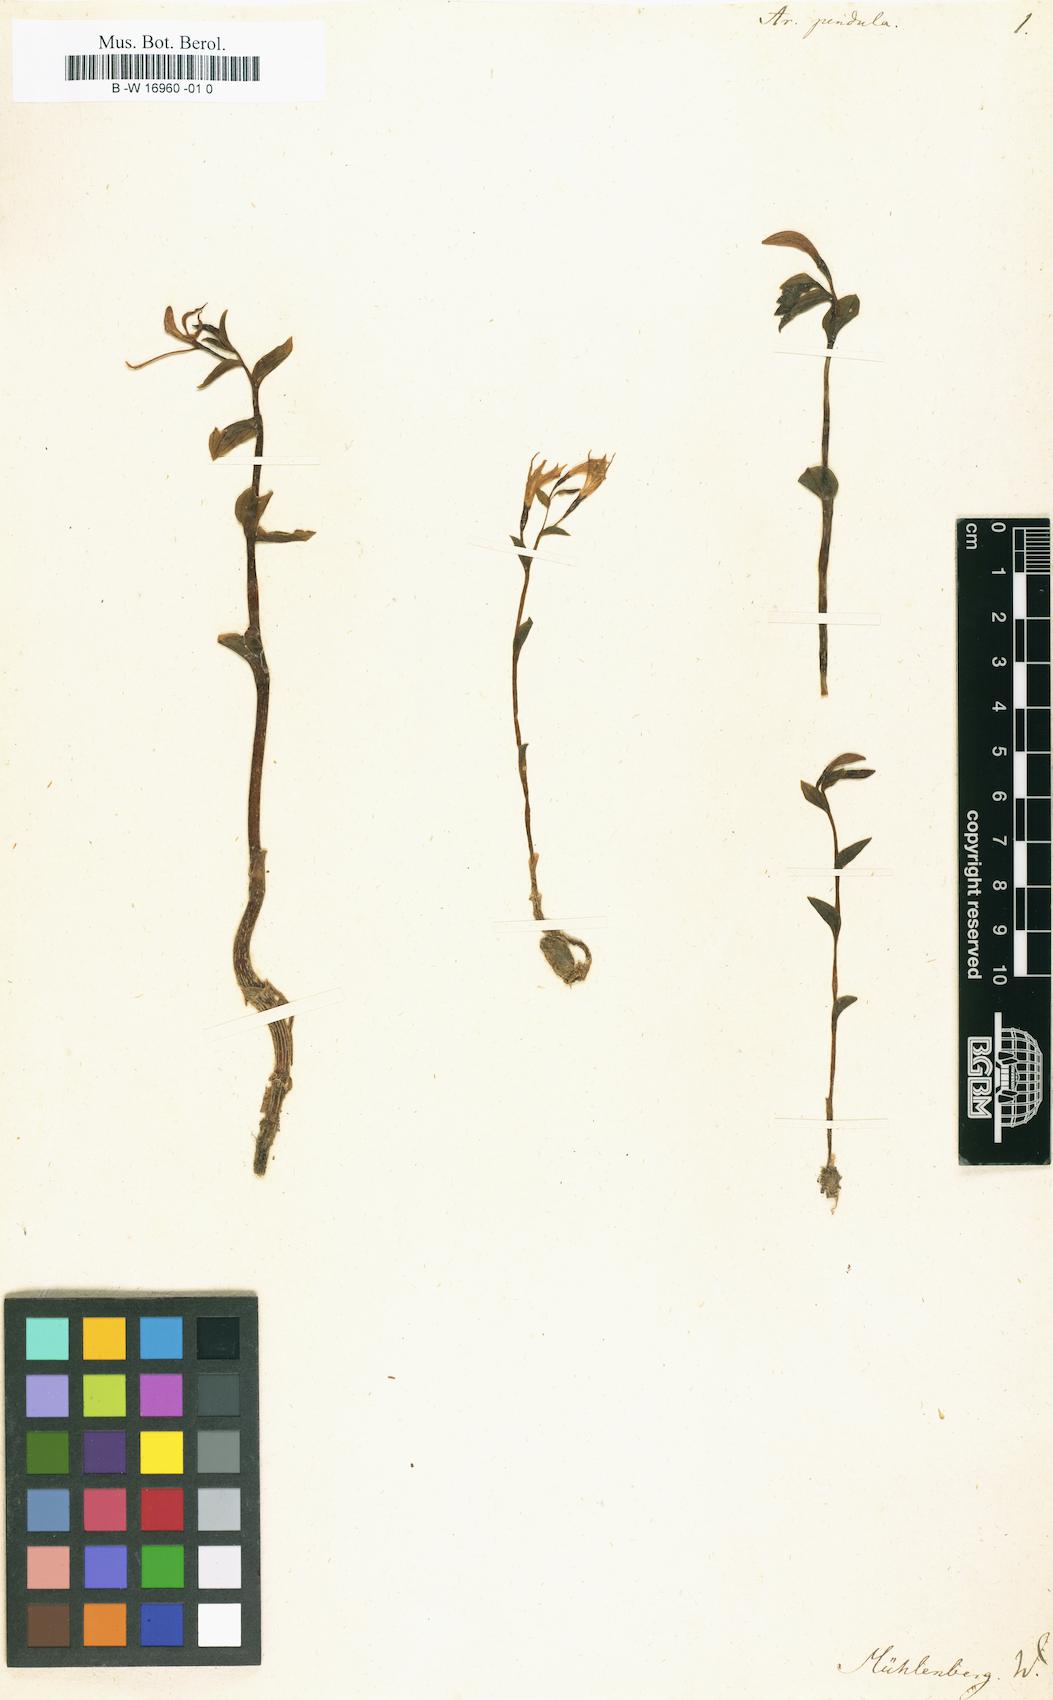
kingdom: Plantae
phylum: Tracheophyta
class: Liliopsida
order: Asparagales
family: Orchidaceae
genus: Triphora
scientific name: Triphora trianthophoros
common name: Three birds orchid
